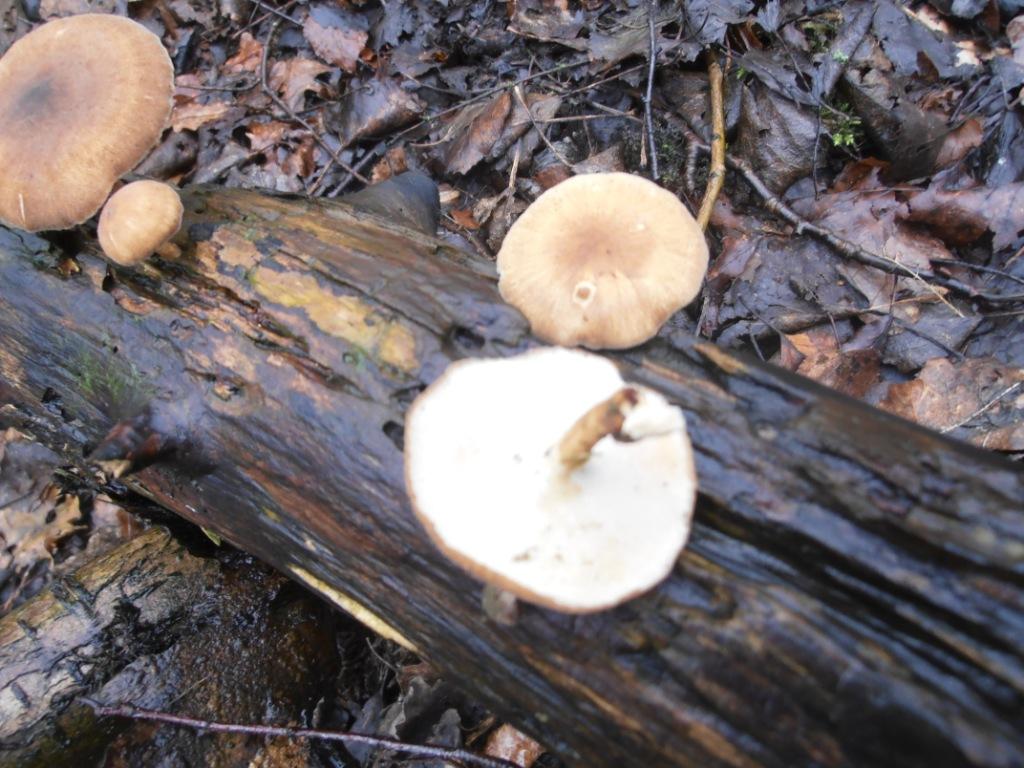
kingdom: Fungi
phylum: Basidiomycota
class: Agaricomycetes
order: Polyporales
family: Polyporaceae
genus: Lentinus
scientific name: Lentinus brumalis
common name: vinter-stilkporesvamp
